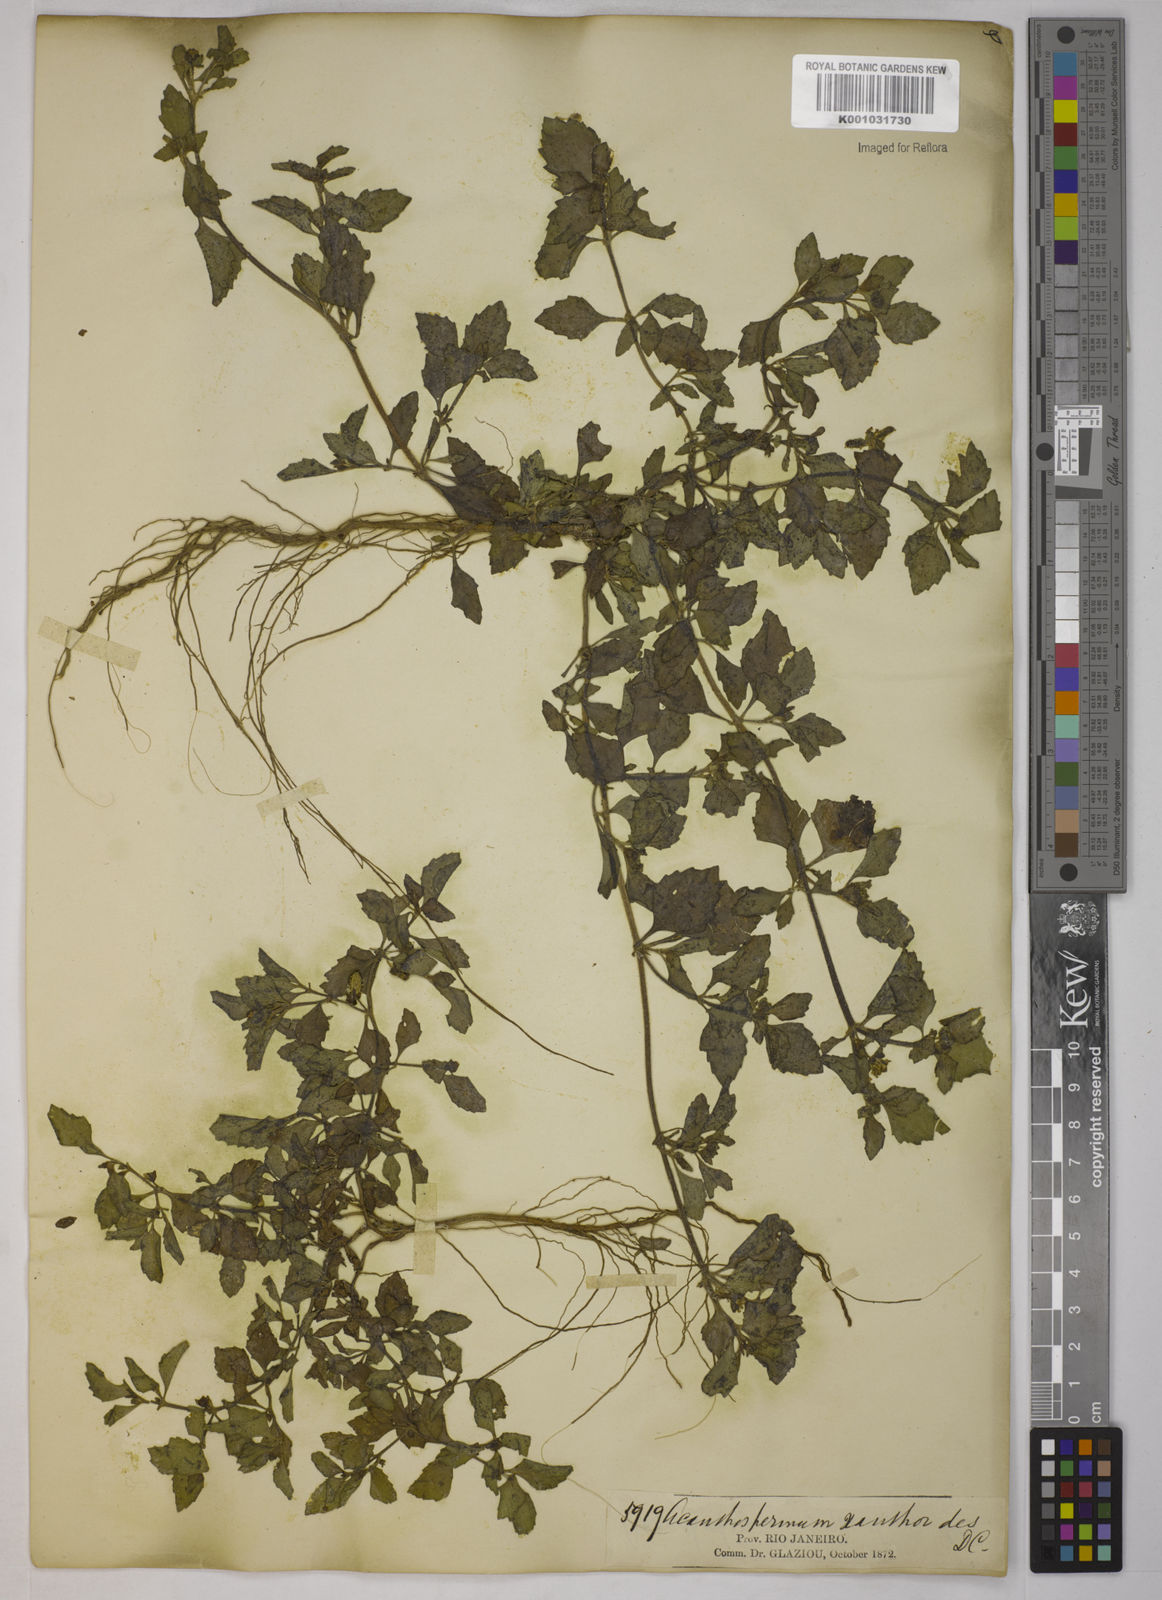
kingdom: Plantae
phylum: Tracheophyta
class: Magnoliopsida
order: Asterales
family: Asteraceae
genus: Acanthospermum
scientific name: Acanthospermum australe
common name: Paraguayan starbur
